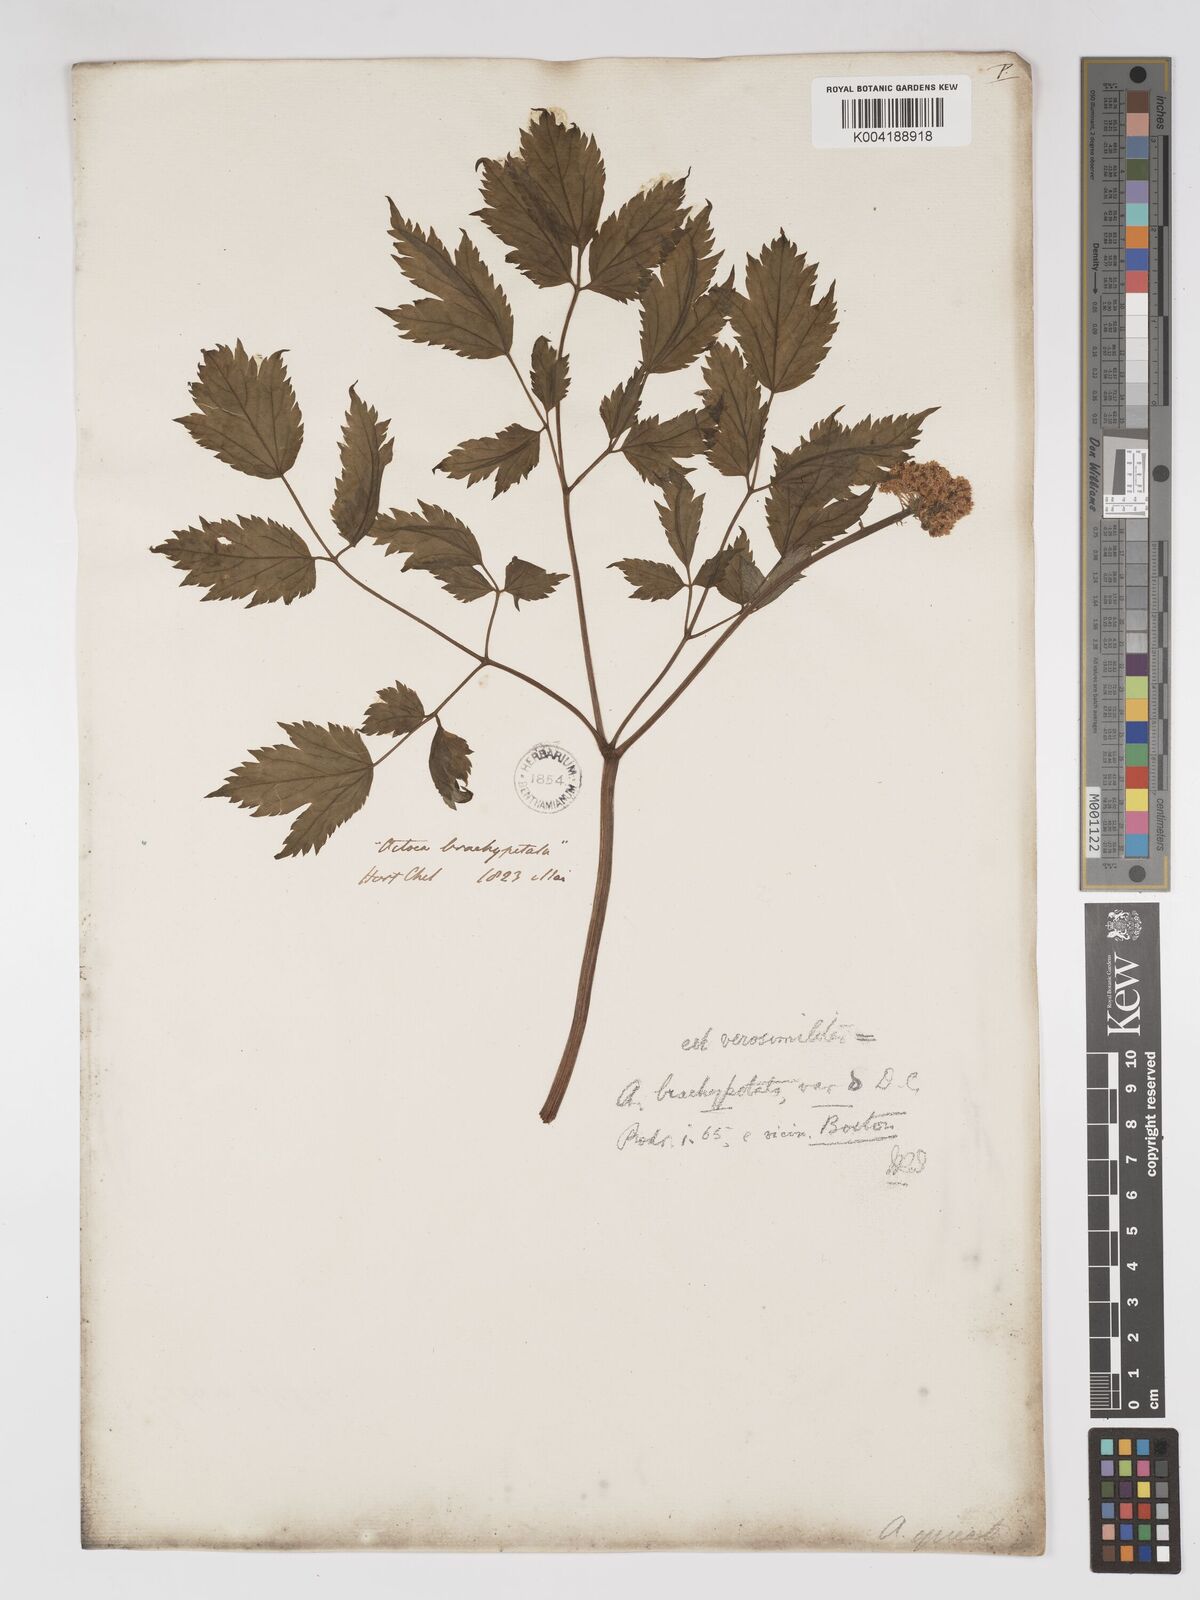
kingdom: Plantae
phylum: Tracheophyta
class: Magnoliopsida
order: Ranunculales
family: Ranunculaceae
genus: Actaea
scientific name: Actaea rubra
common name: Red baneberry
